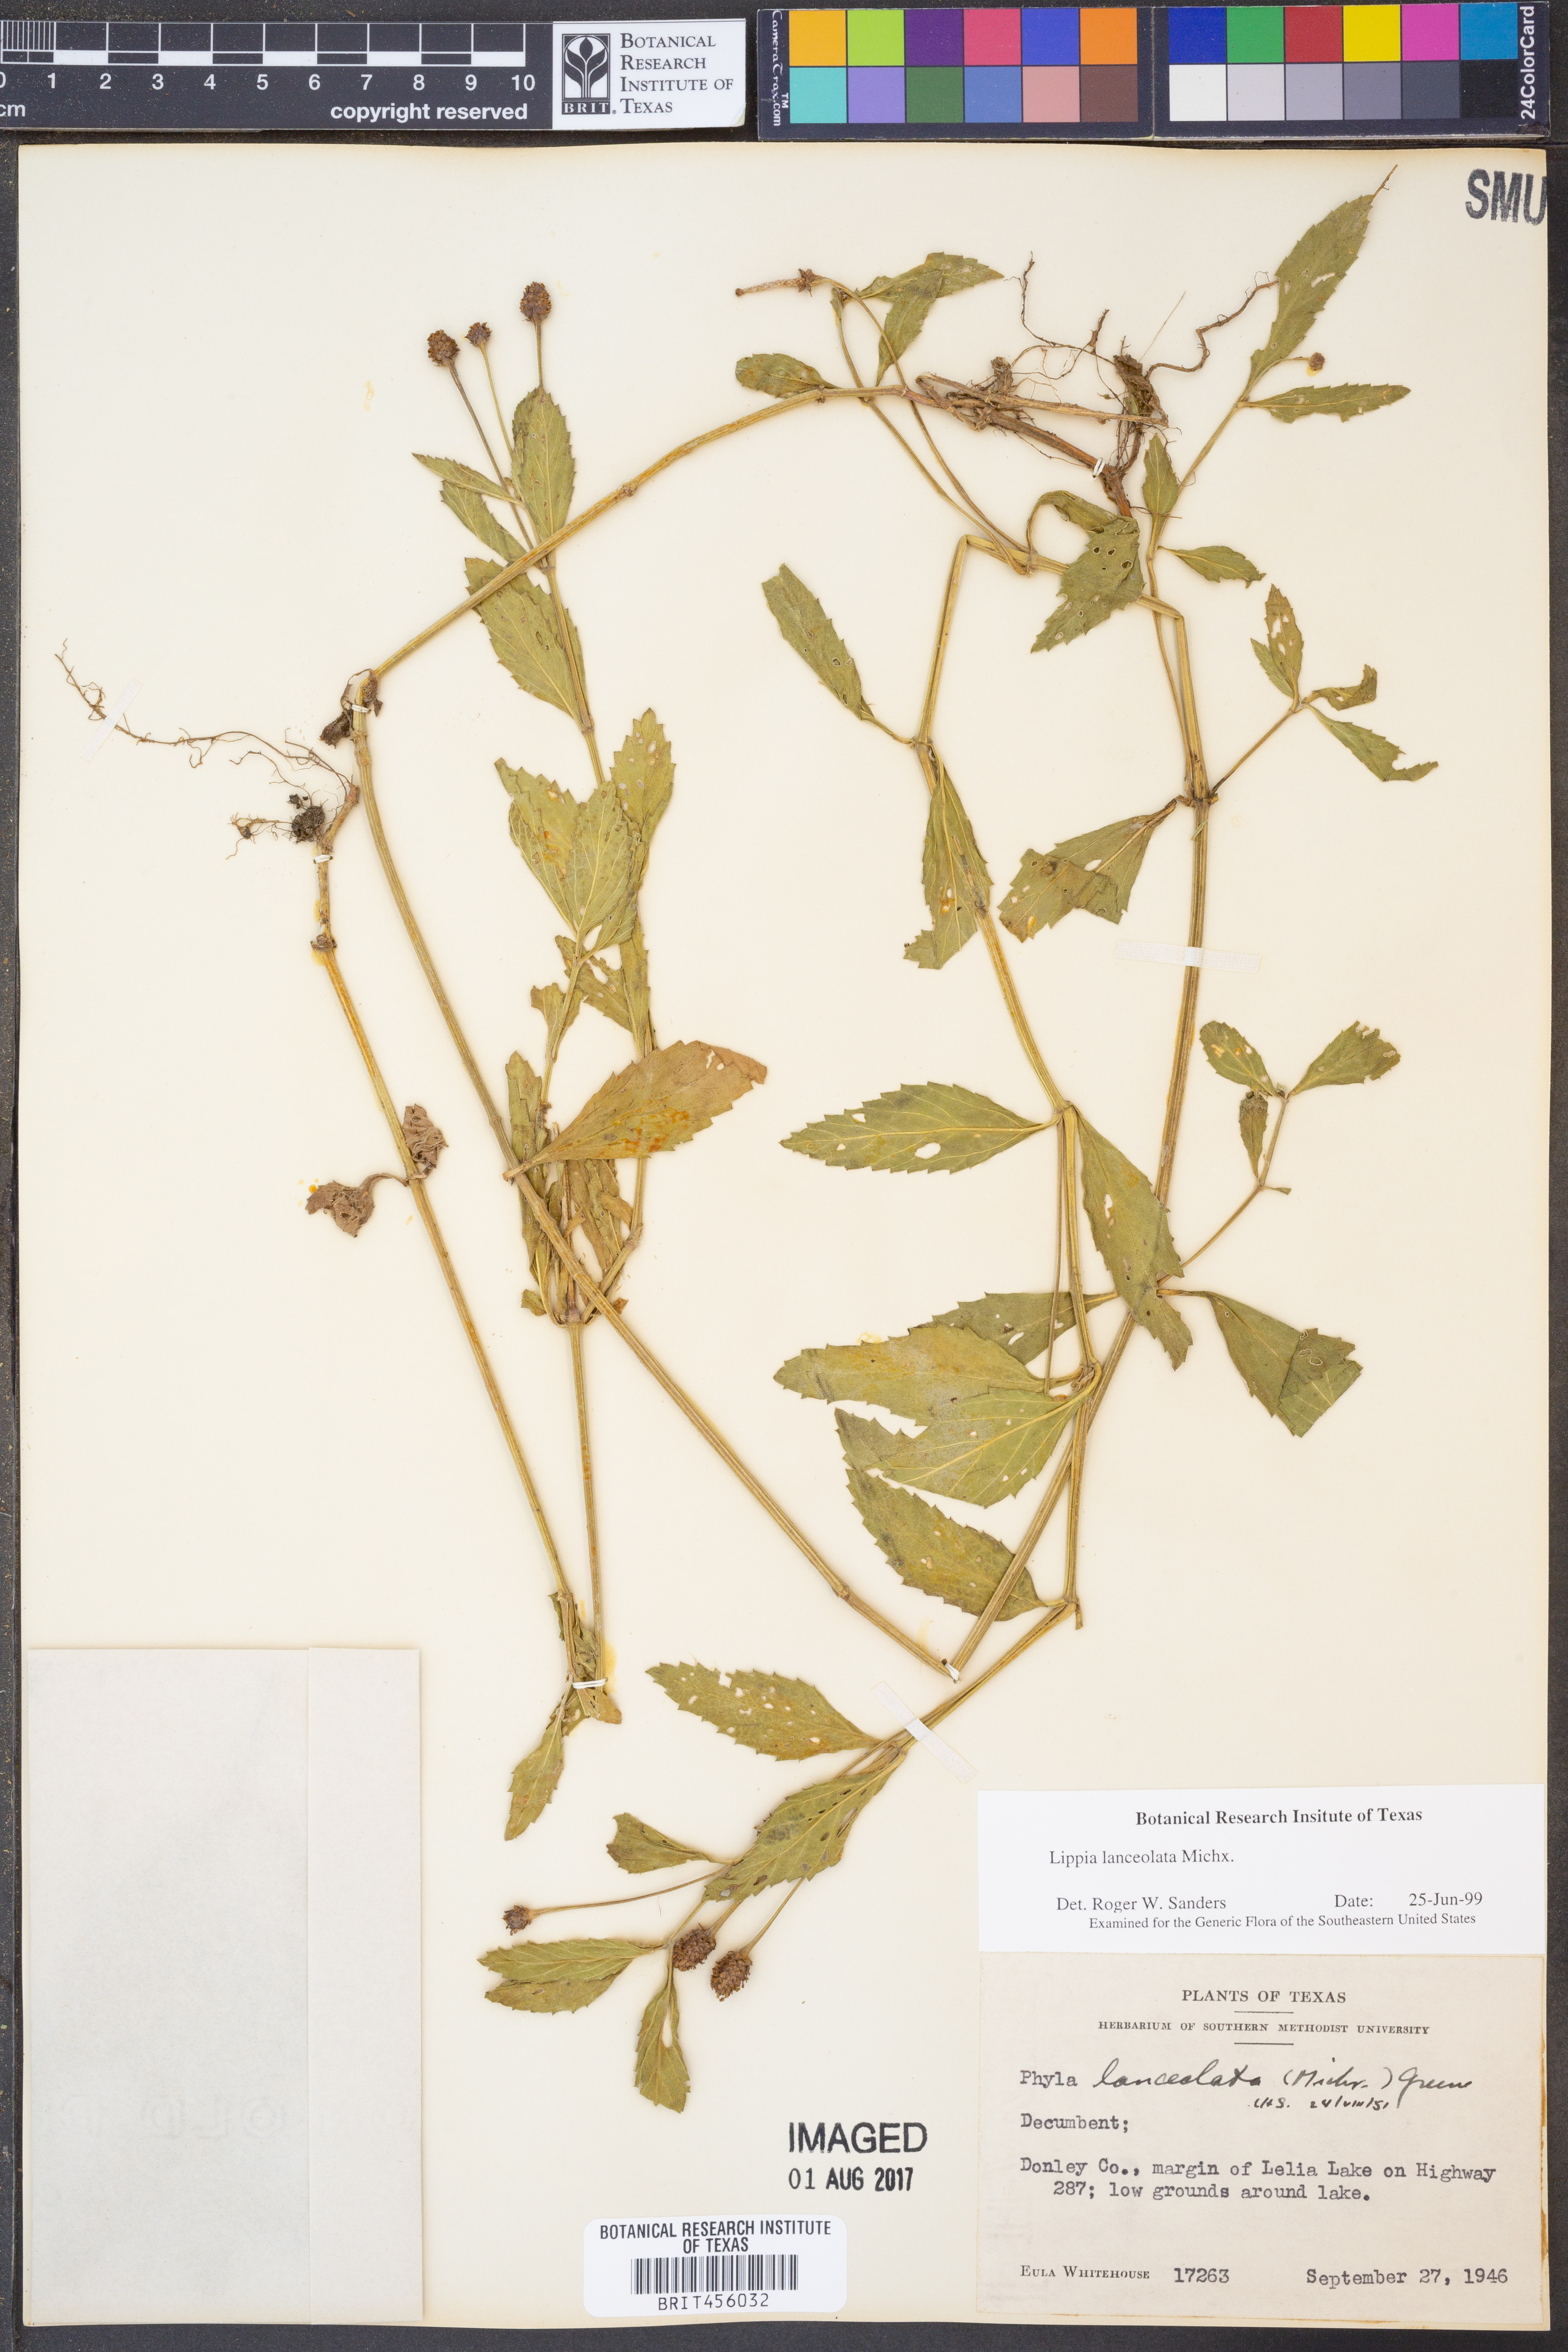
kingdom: Plantae
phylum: Tracheophyta
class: Magnoliopsida
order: Lamiales
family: Verbenaceae
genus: Phyla
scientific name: Phyla lanceolata
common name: Northern fogfruit
